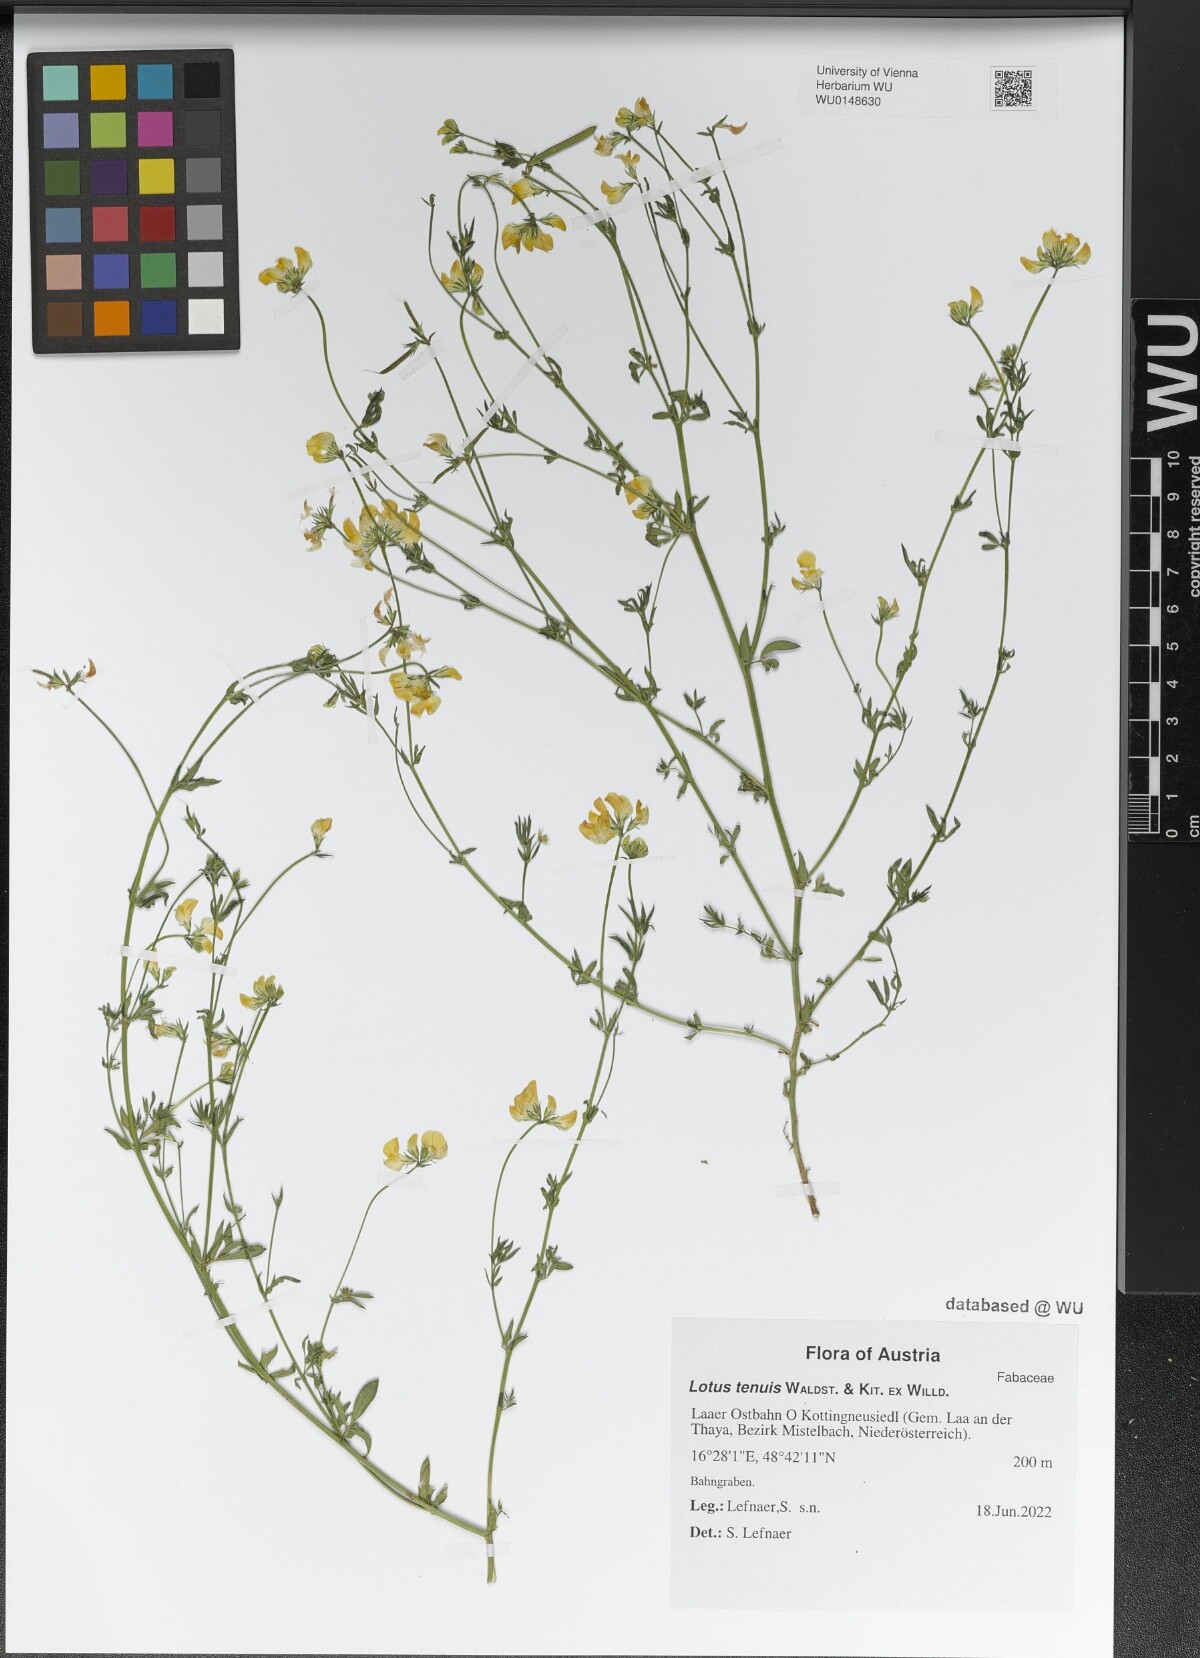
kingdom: Plantae
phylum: Tracheophyta
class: Magnoliopsida
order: Fabales
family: Fabaceae
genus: Lotus
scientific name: Lotus tenuis
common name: Narrow-leaved bird's-foot-trefoil
